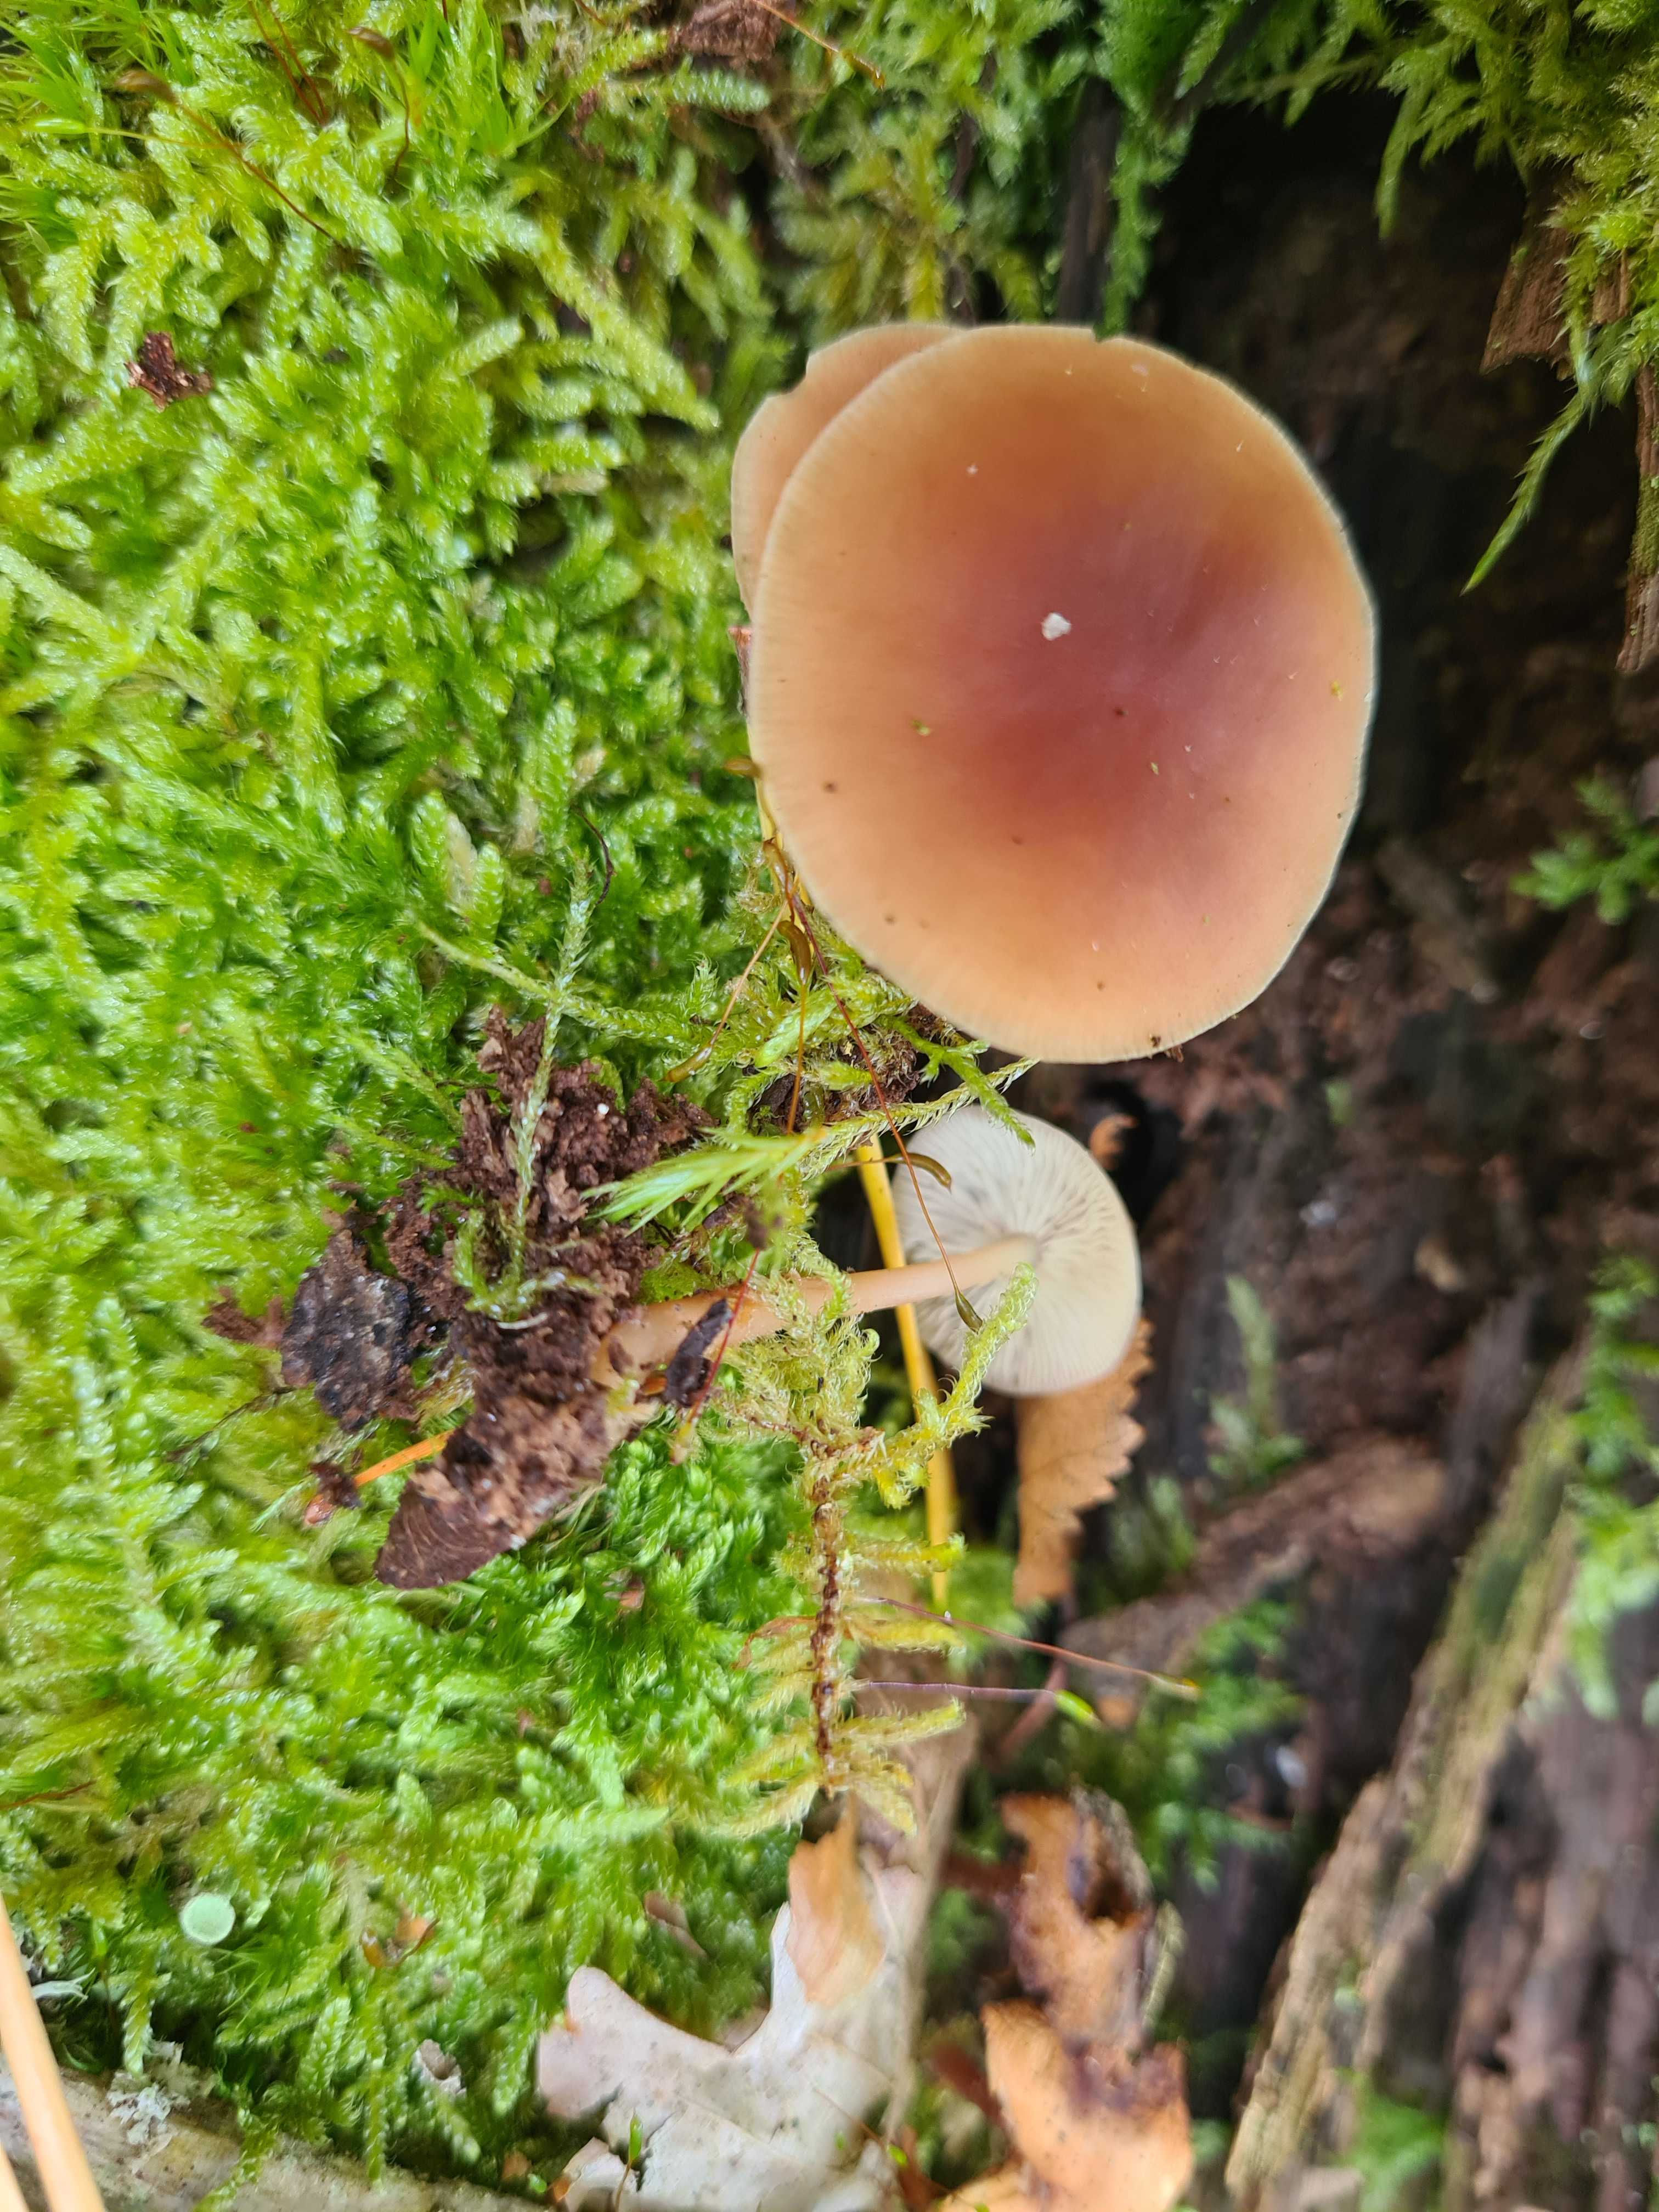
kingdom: Fungi
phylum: Basidiomycota
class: Agaricomycetes
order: Agaricales
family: Omphalotaceae
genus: Gymnopus
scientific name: Gymnopus dryophilus
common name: løv-fladhat
